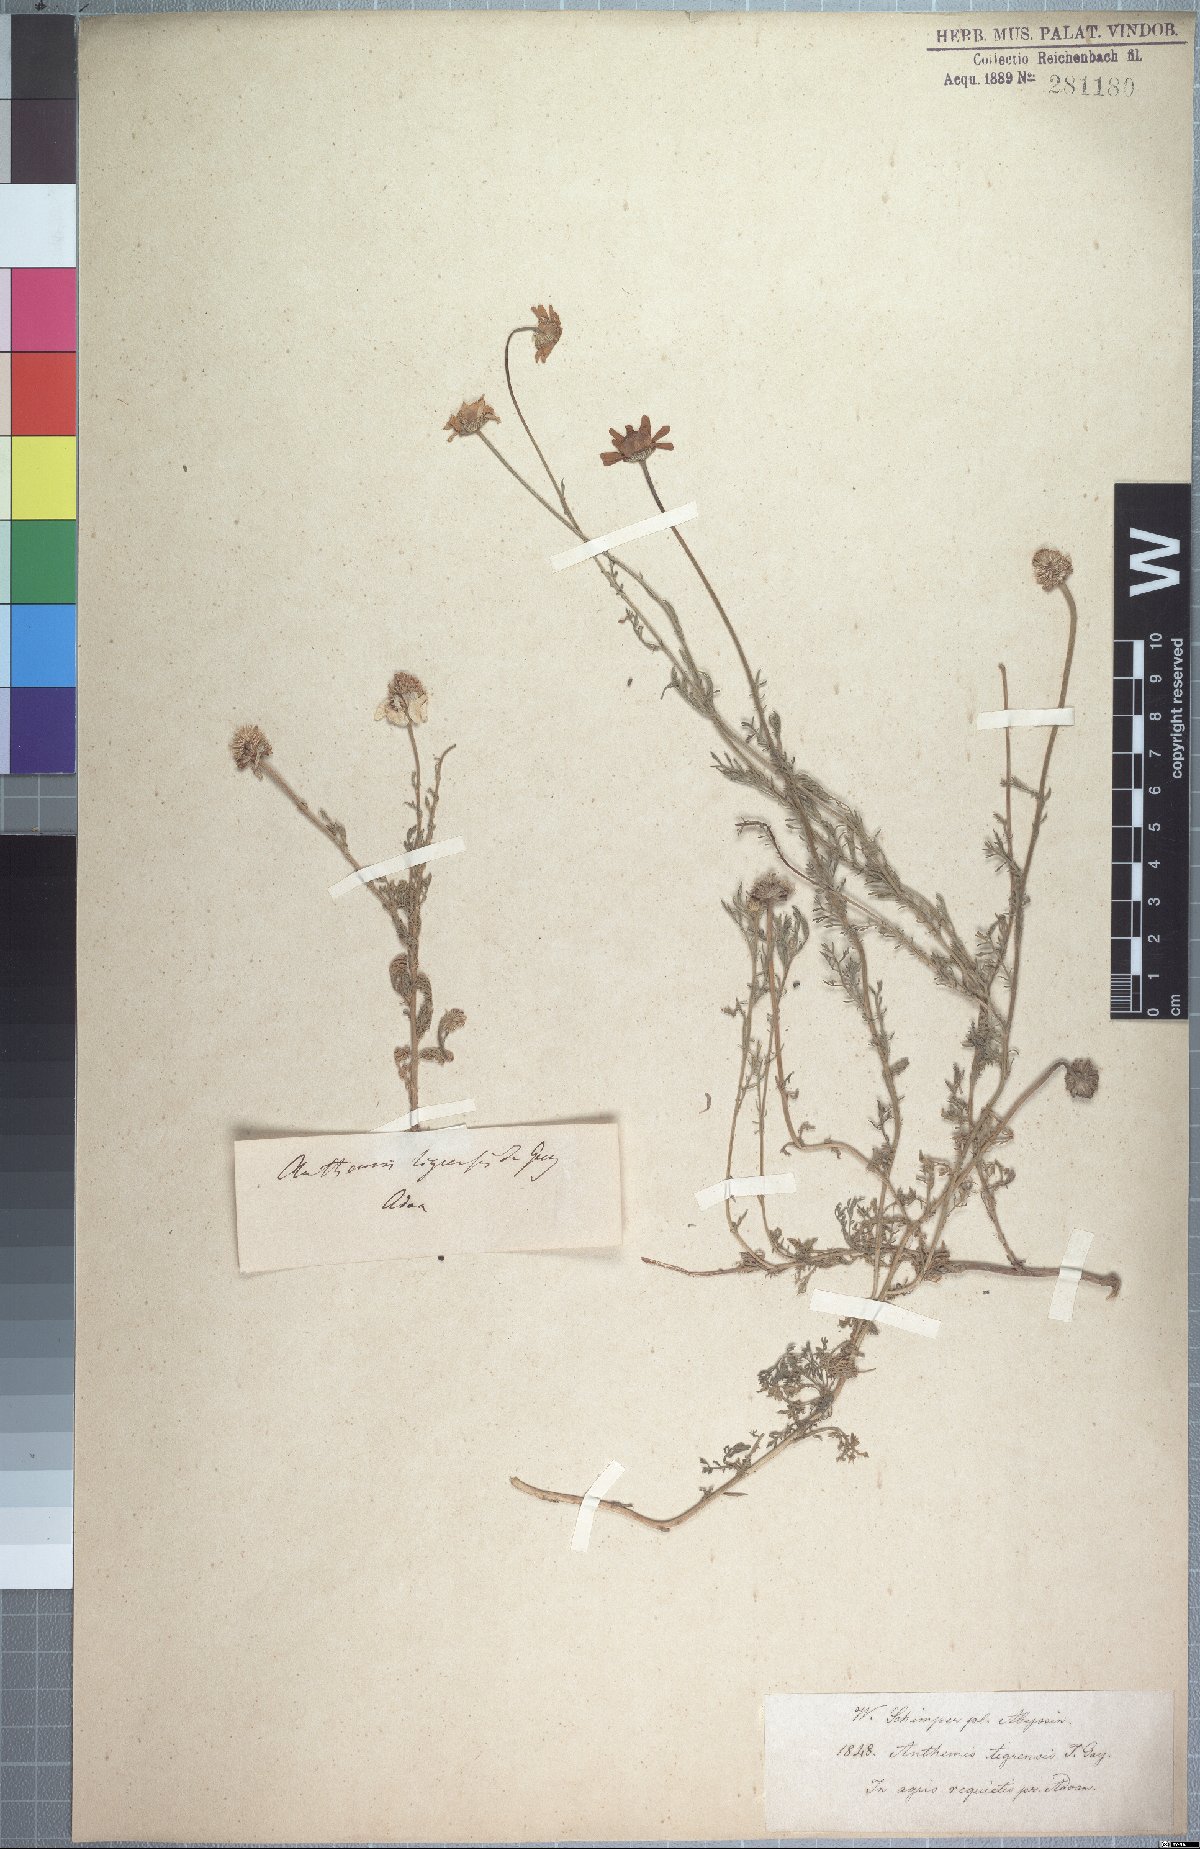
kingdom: Plantae
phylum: Tracheophyta
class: Magnoliopsida
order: Asterales
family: Asteraceae
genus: Anthemis
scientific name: Anthemis tigreensis
